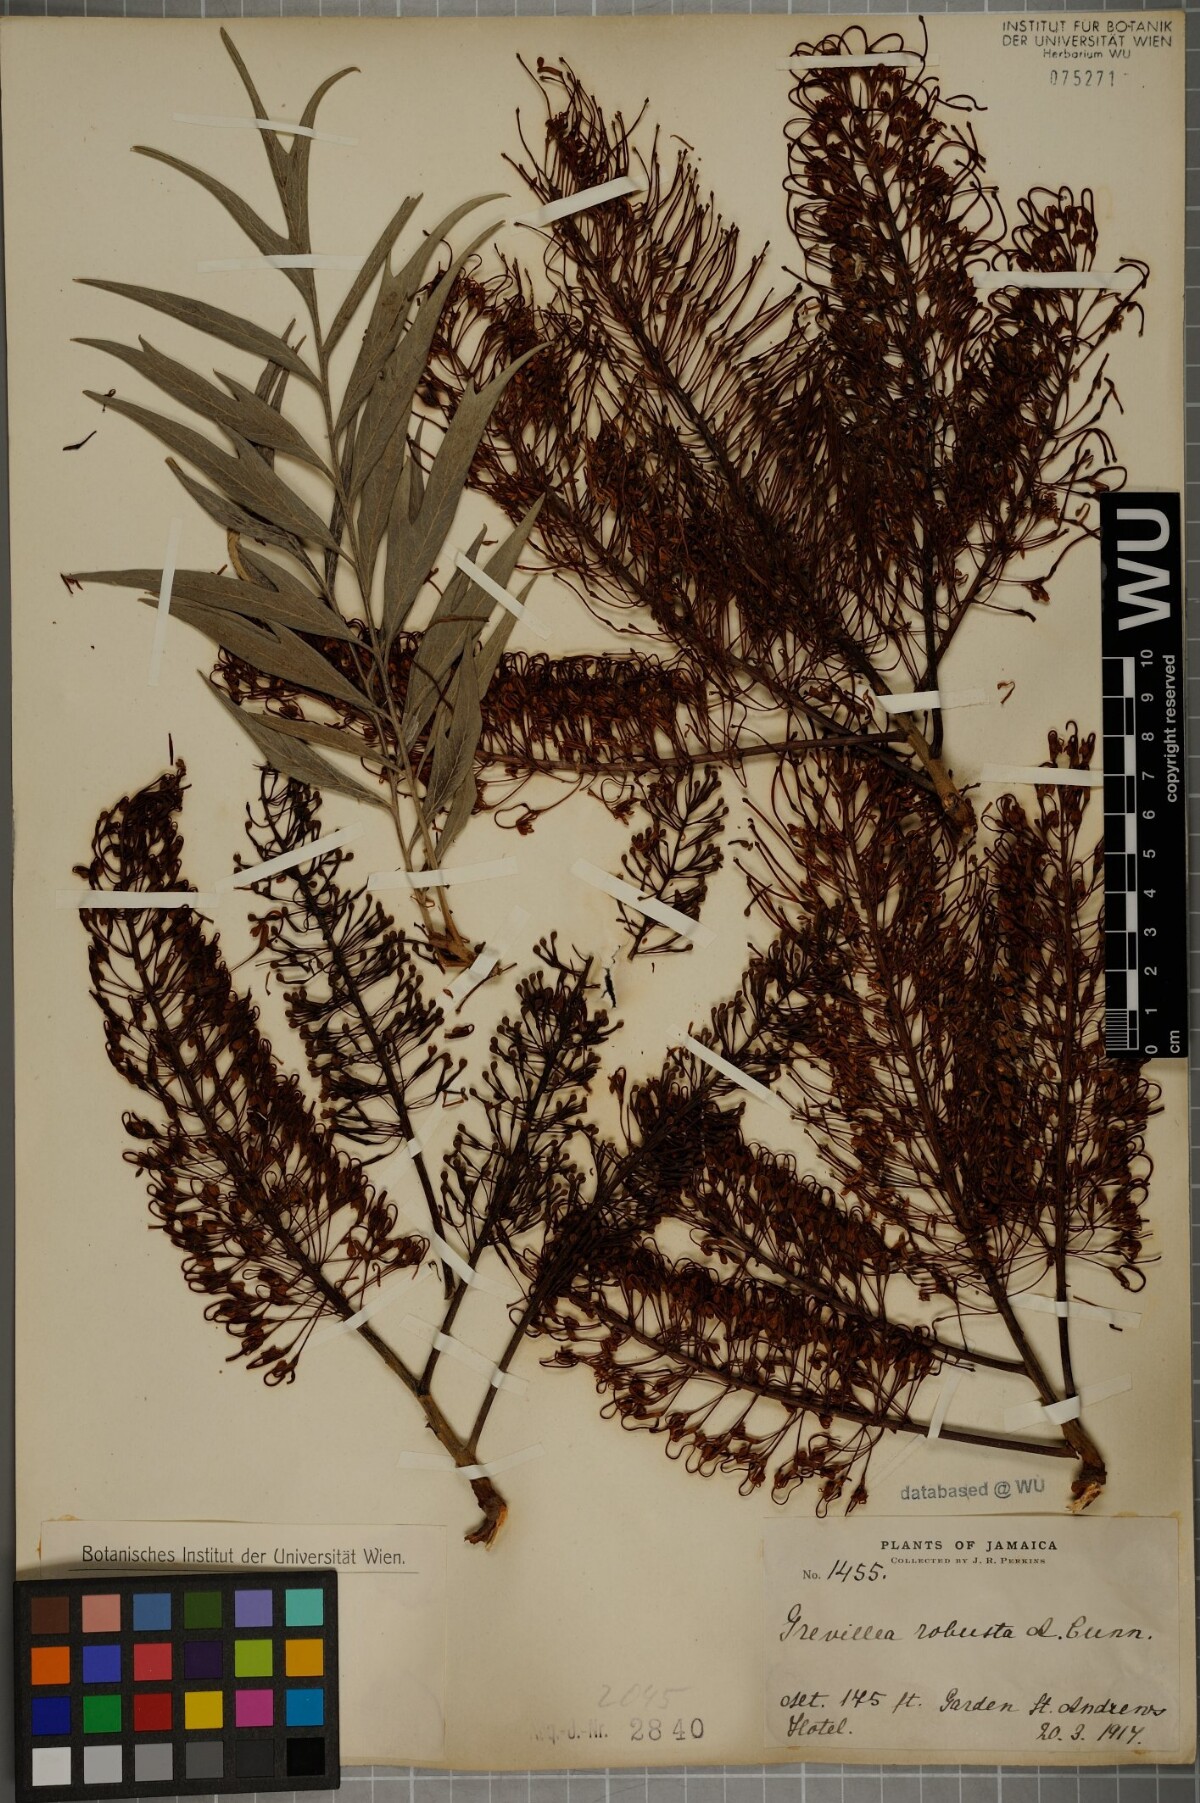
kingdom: Plantae
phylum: Tracheophyta
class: Magnoliopsida
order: Proteales
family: Proteaceae
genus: Grevillea
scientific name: Grevillea robusta
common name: Silkoak
